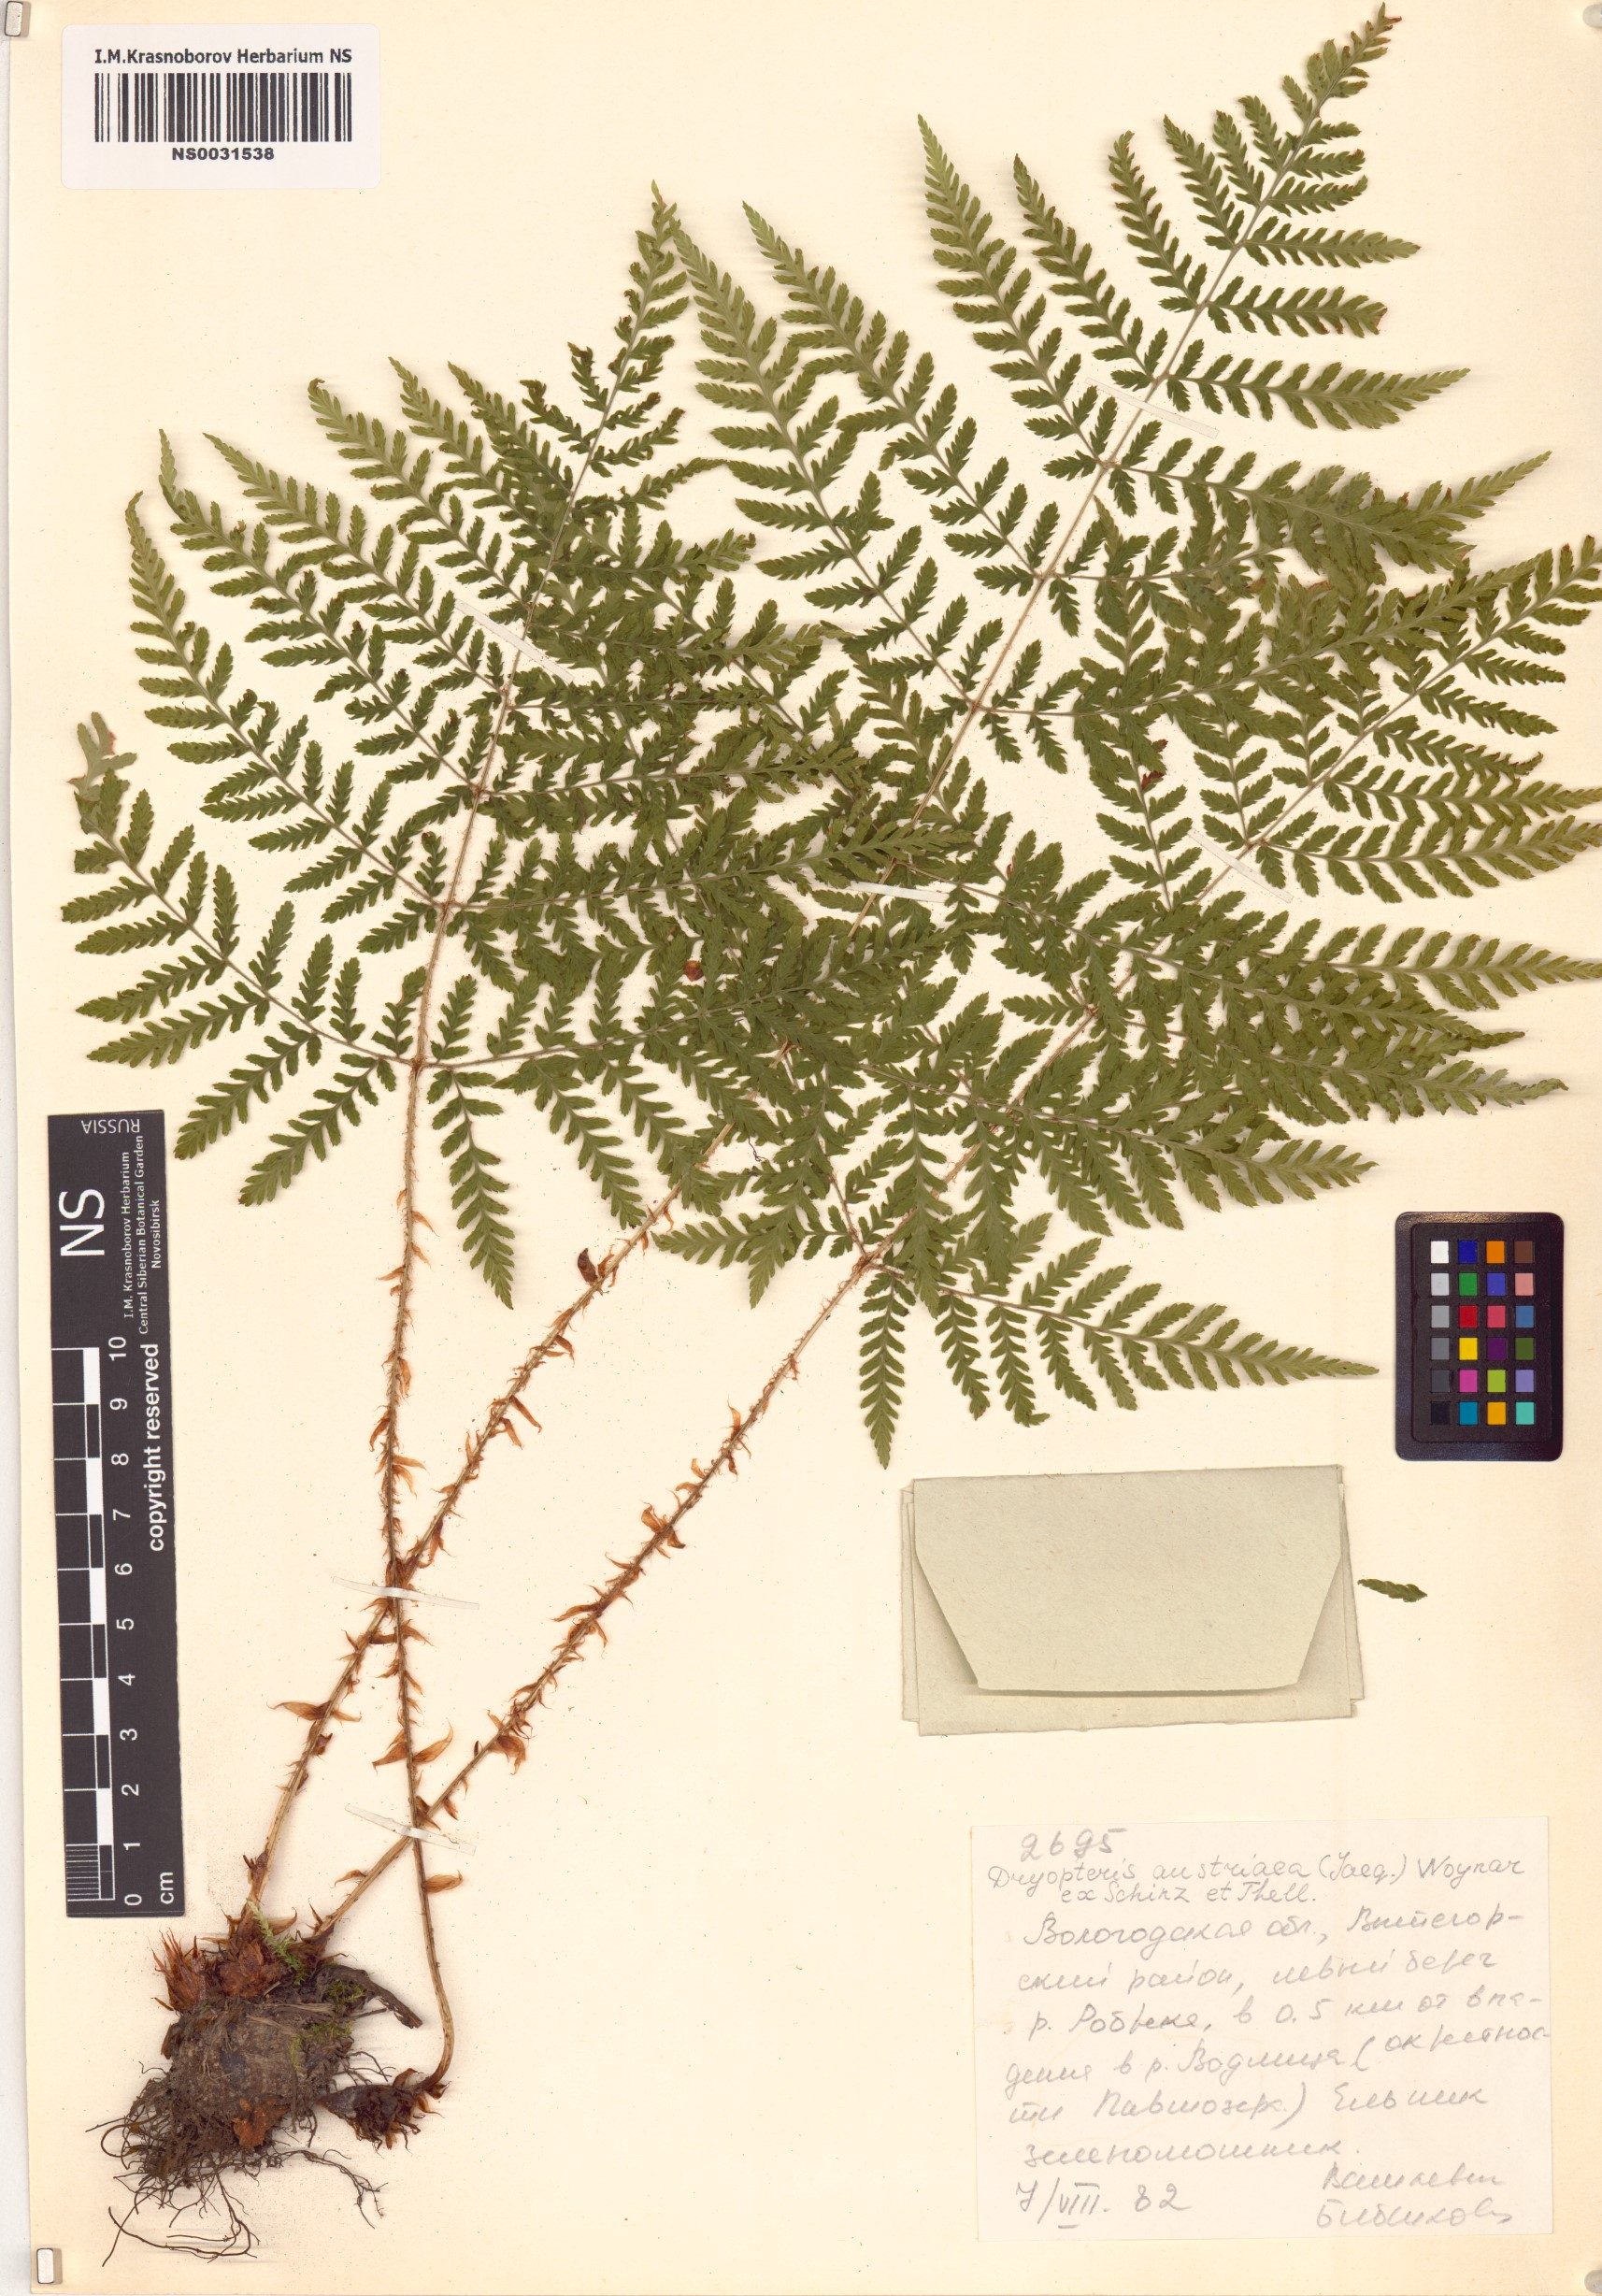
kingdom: Plantae
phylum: Tracheophyta
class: Polypodiopsida
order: Polypodiales
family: Dryopteridaceae
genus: Dryopteris
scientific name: Dryopteris dilatata
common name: Broad buckler-fern
